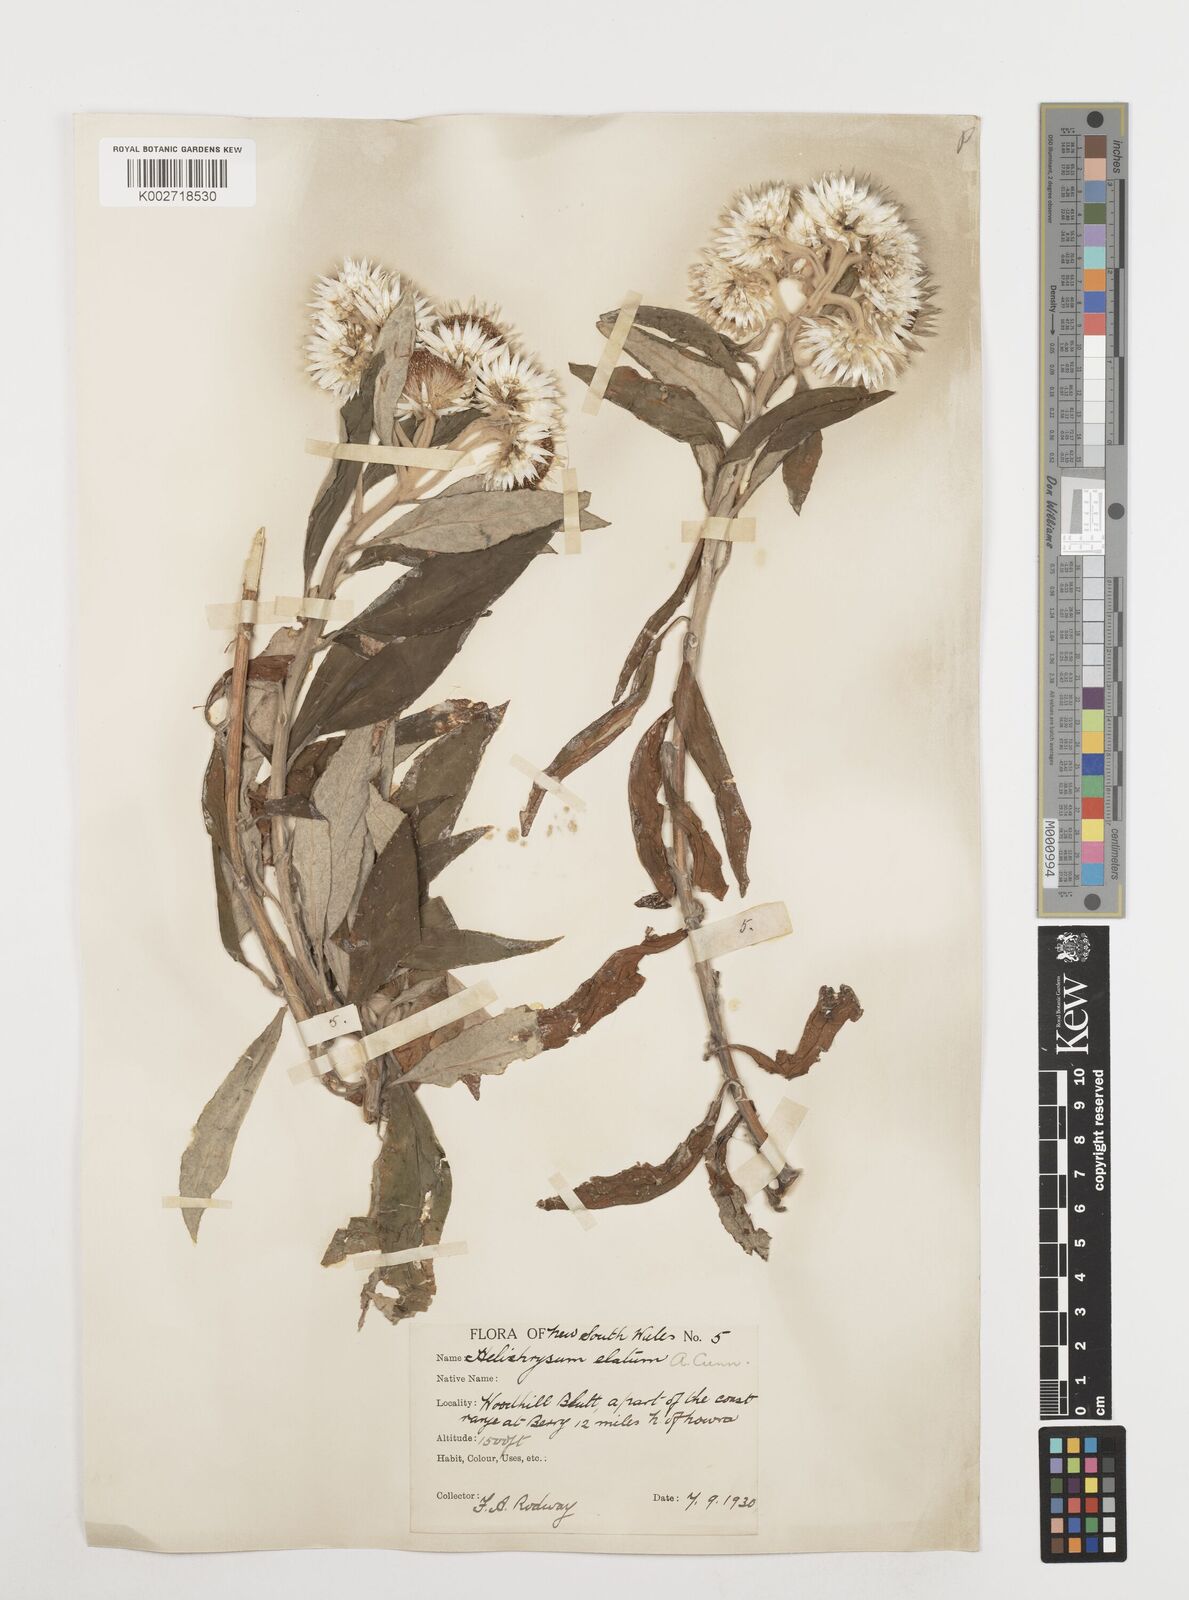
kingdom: Plantae
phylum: Tracheophyta
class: Magnoliopsida
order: Asterales
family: Asteraceae
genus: Leucozoma
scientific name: Leucozoma elatum
